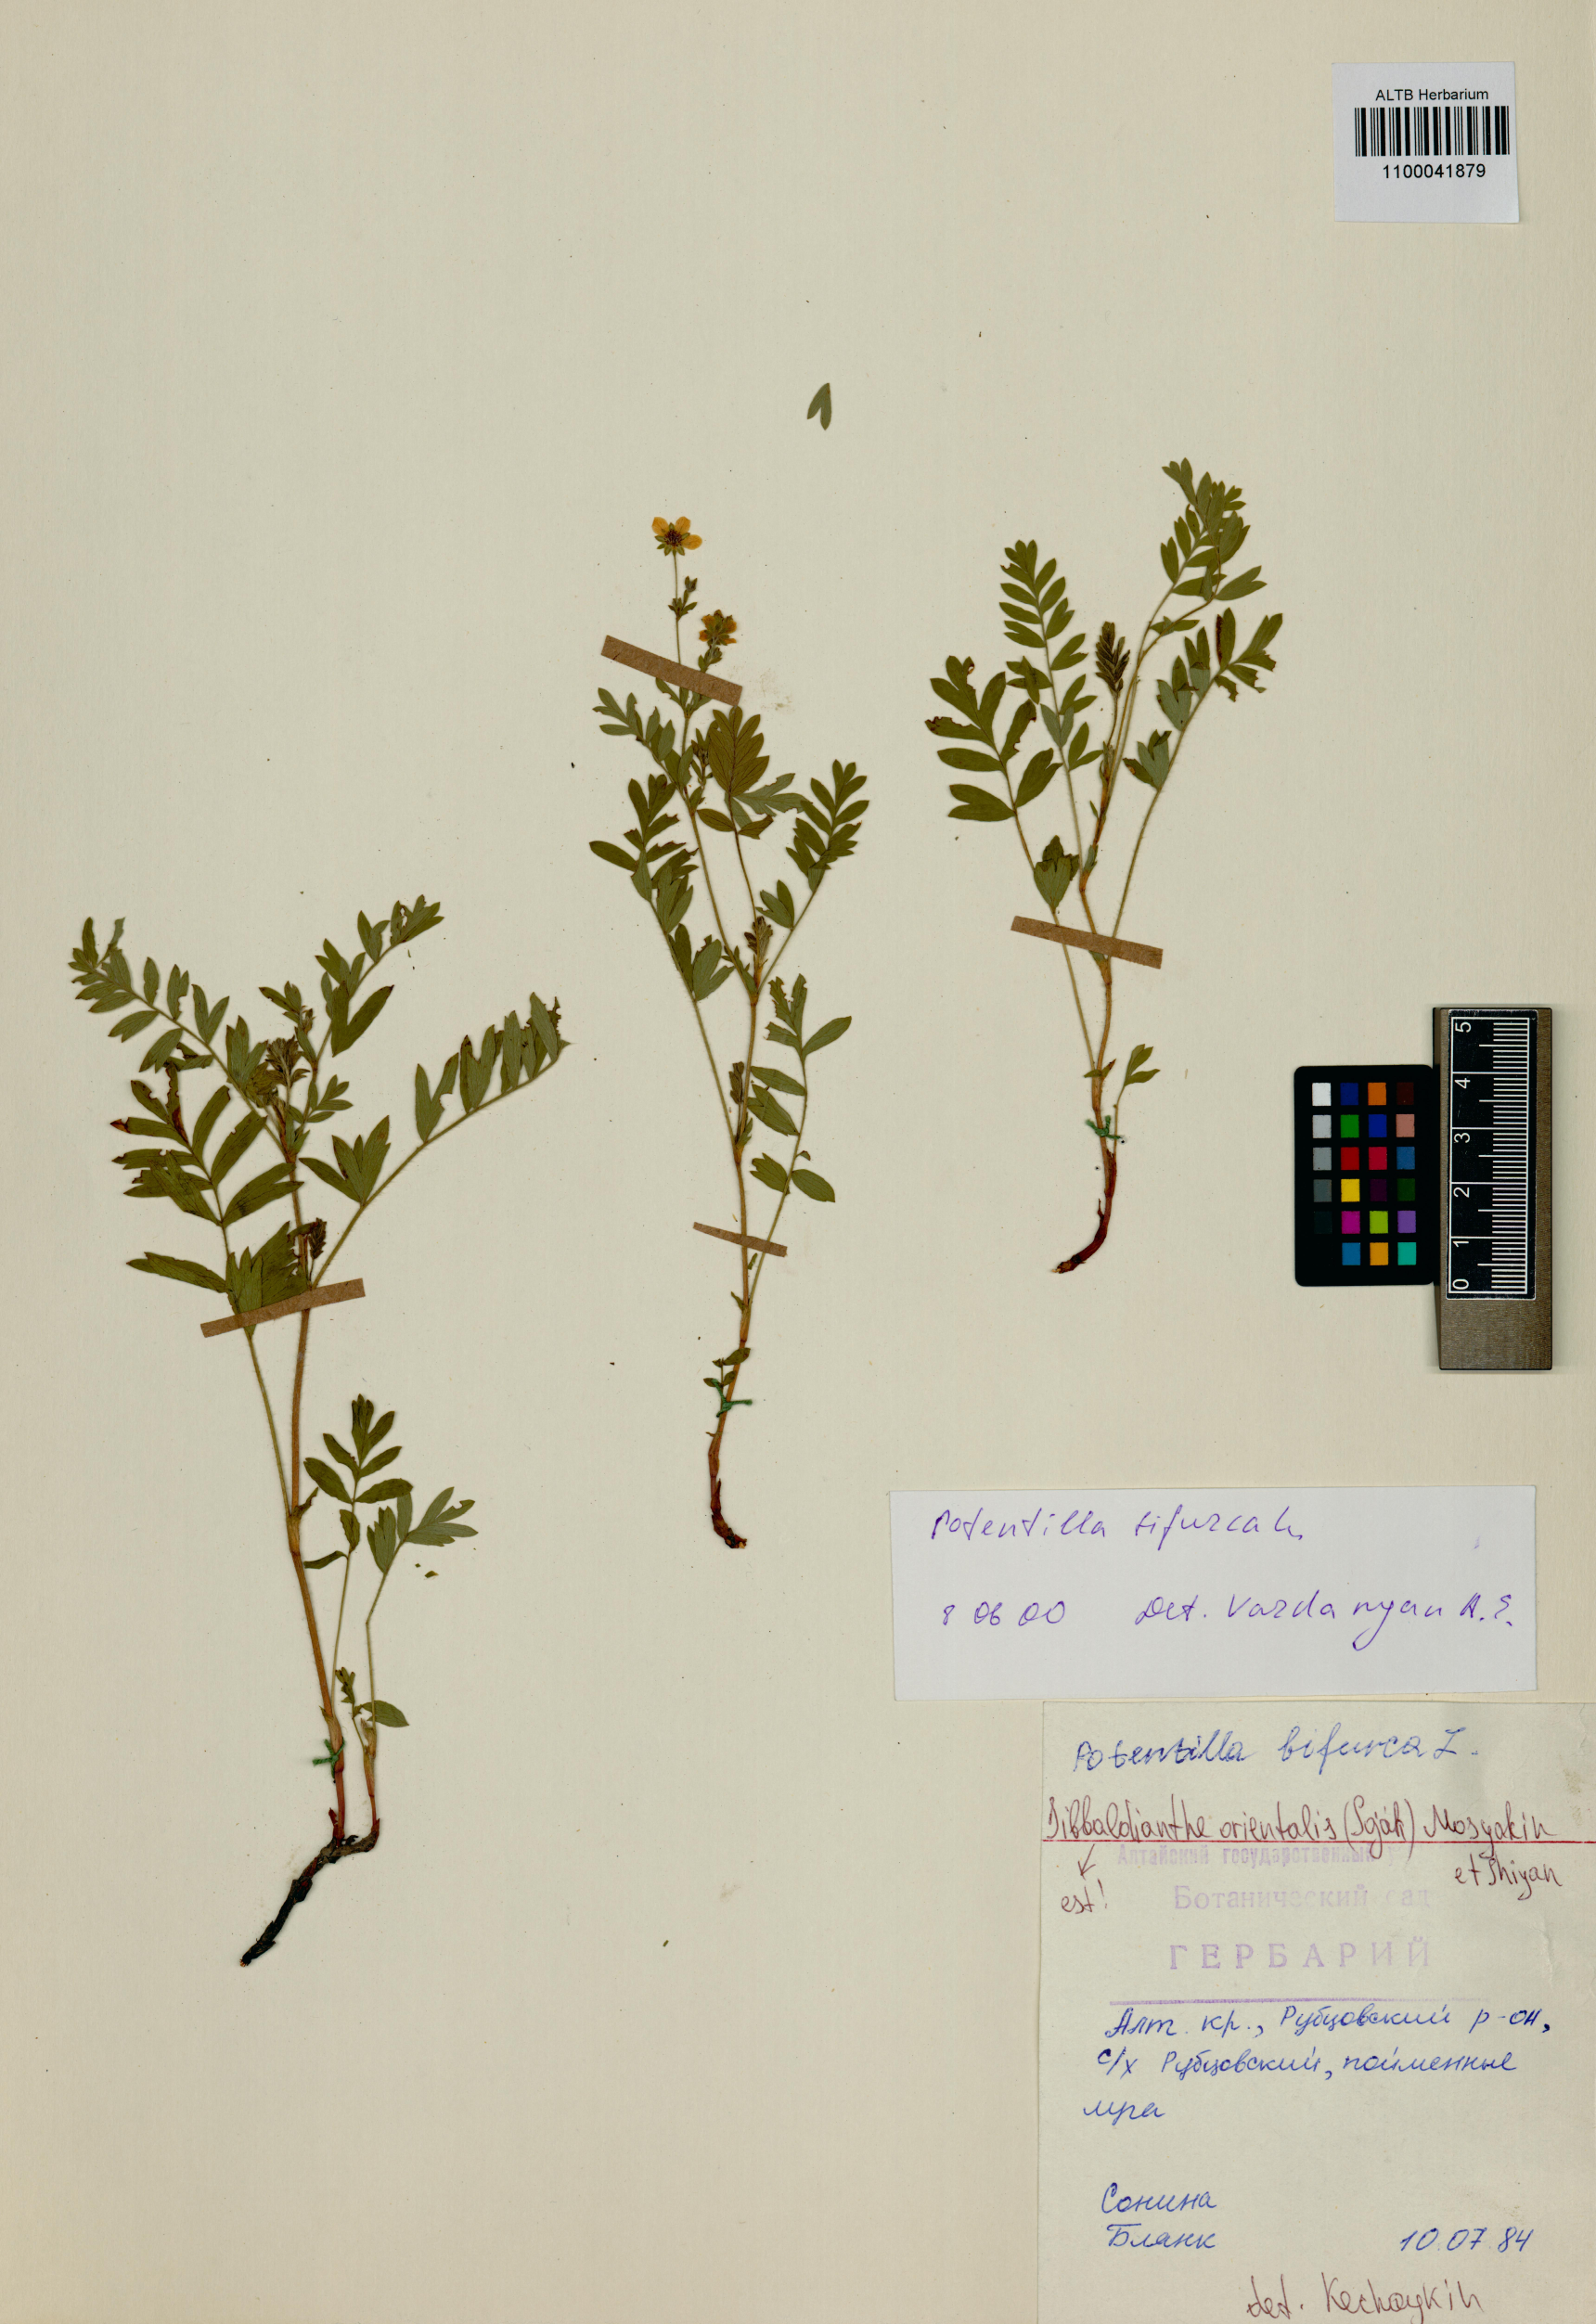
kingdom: Plantae
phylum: Tracheophyta
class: Magnoliopsida
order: Rosales
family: Rosaceae
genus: Sibbaldianthe
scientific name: Sibbaldianthe bifurca
